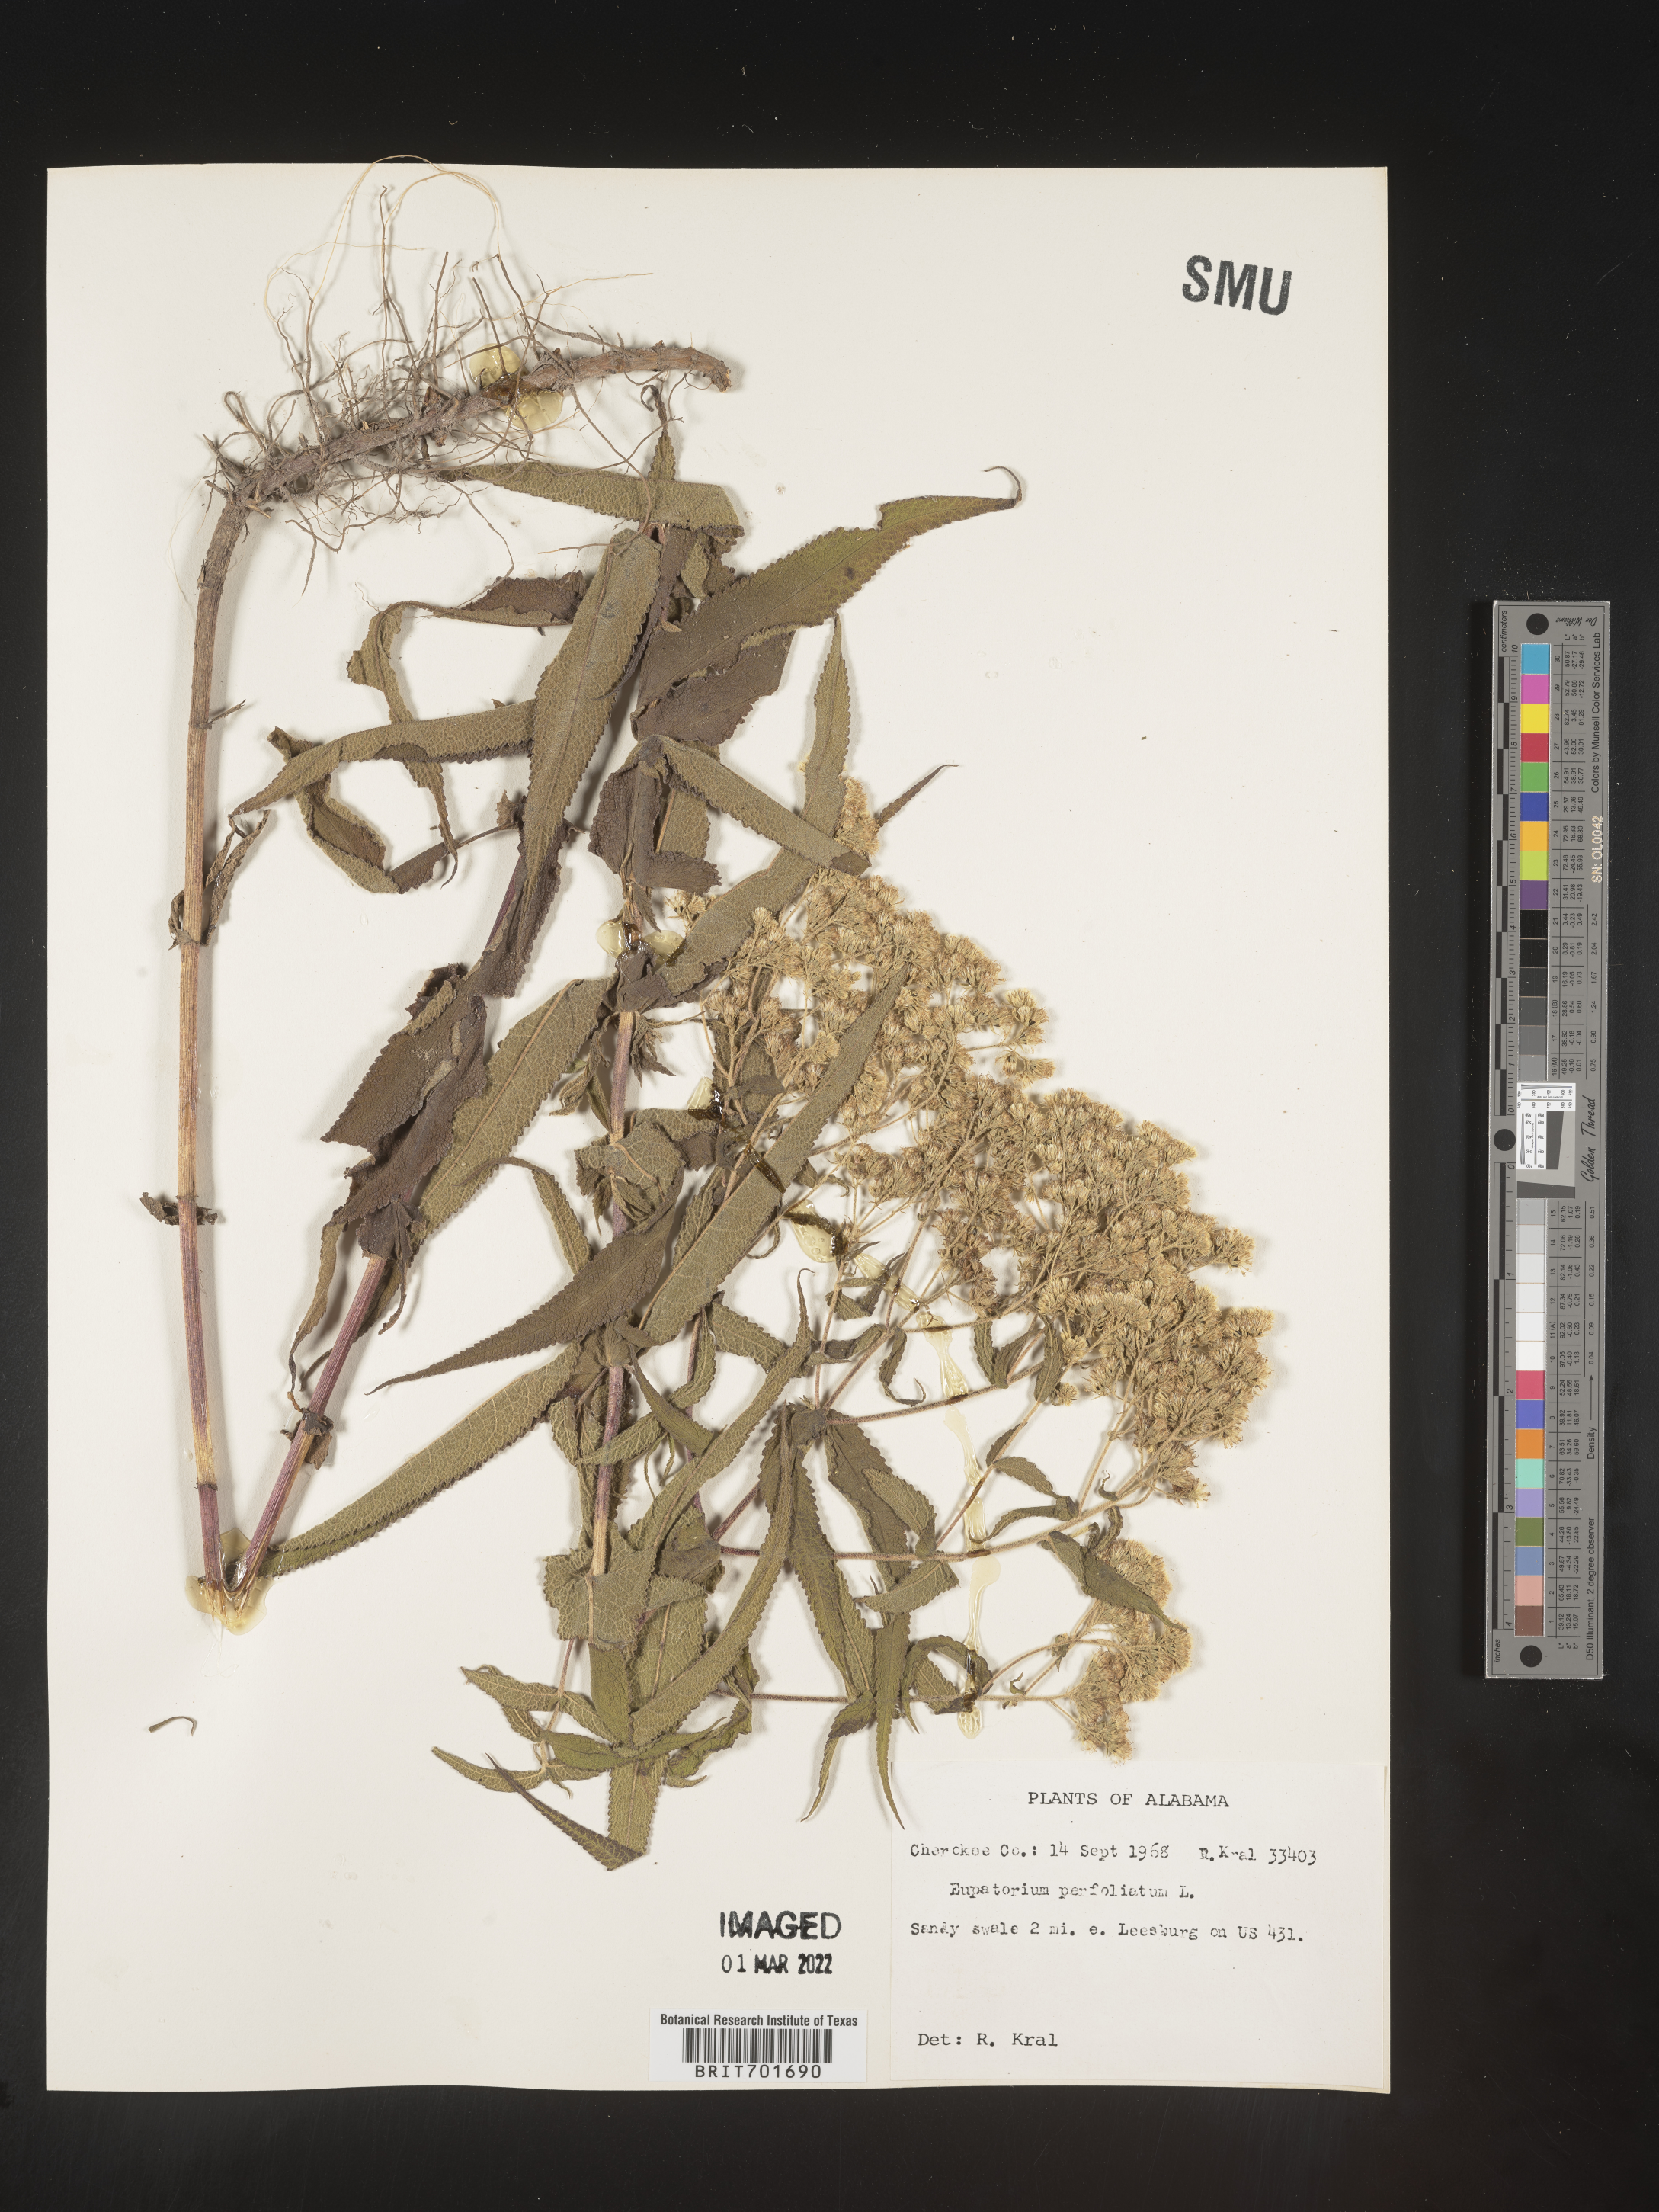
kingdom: Plantae
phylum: Tracheophyta
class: Magnoliopsida
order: Asterales
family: Asteraceae
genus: Eupatorium
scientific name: Eupatorium perfoliatum
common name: Boneset
